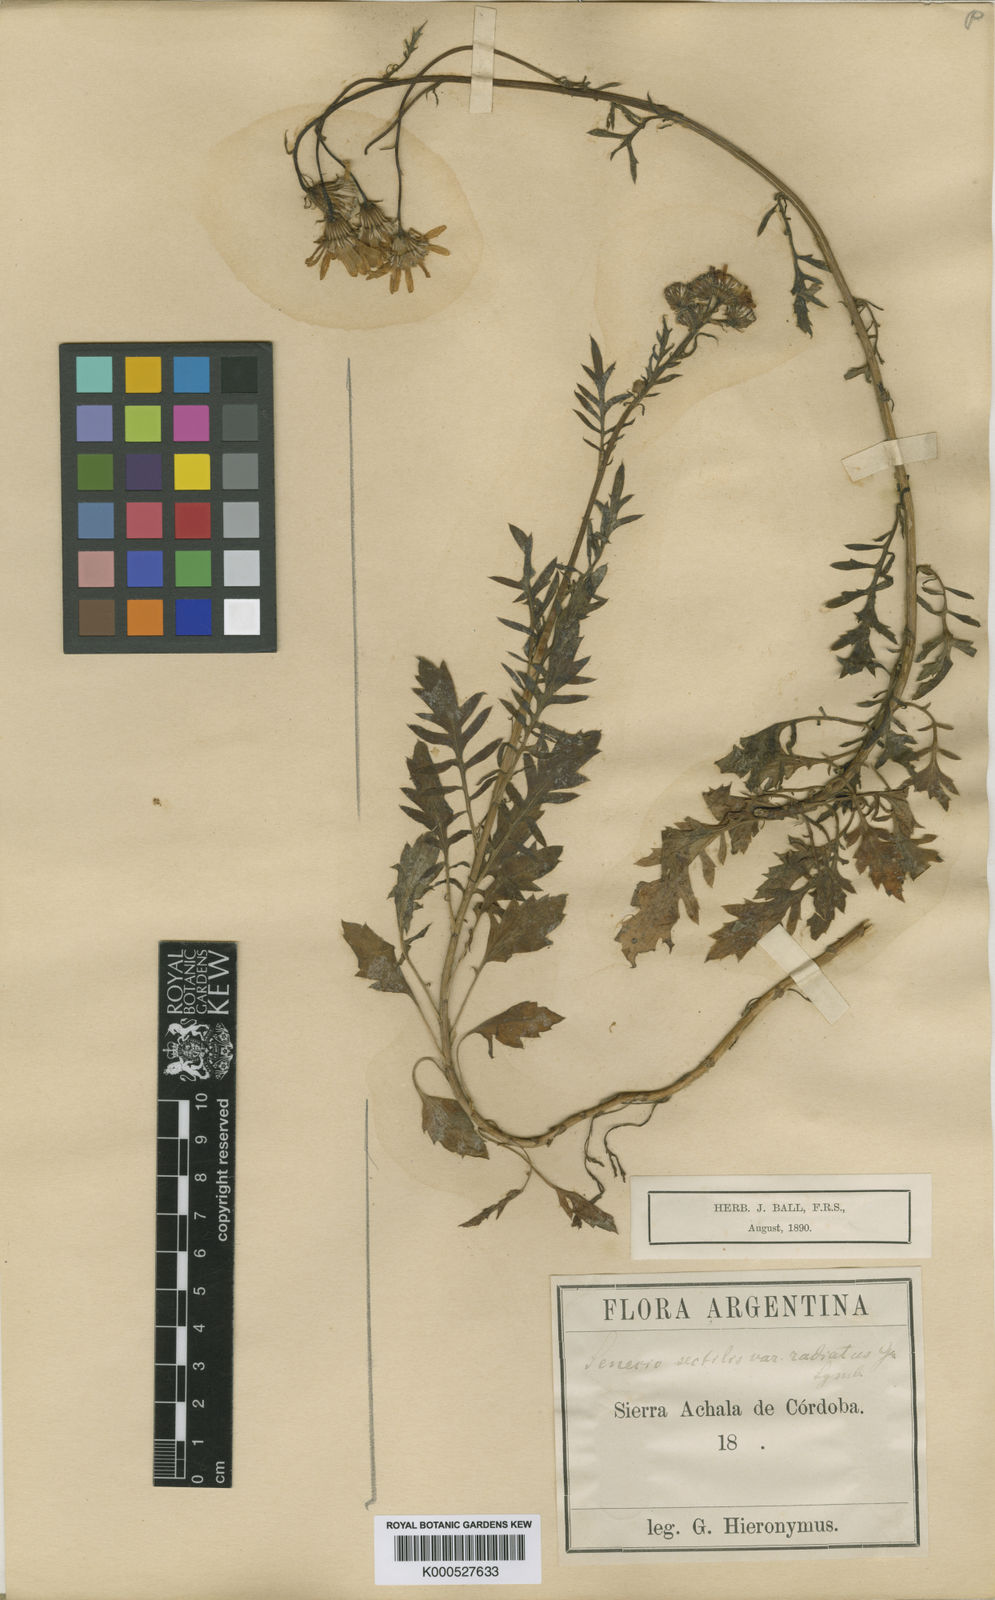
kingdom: Plantae
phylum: Tracheophyta
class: Magnoliopsida
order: Asterales
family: Asteraceae
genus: Senecio
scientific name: Senecio sectilis
